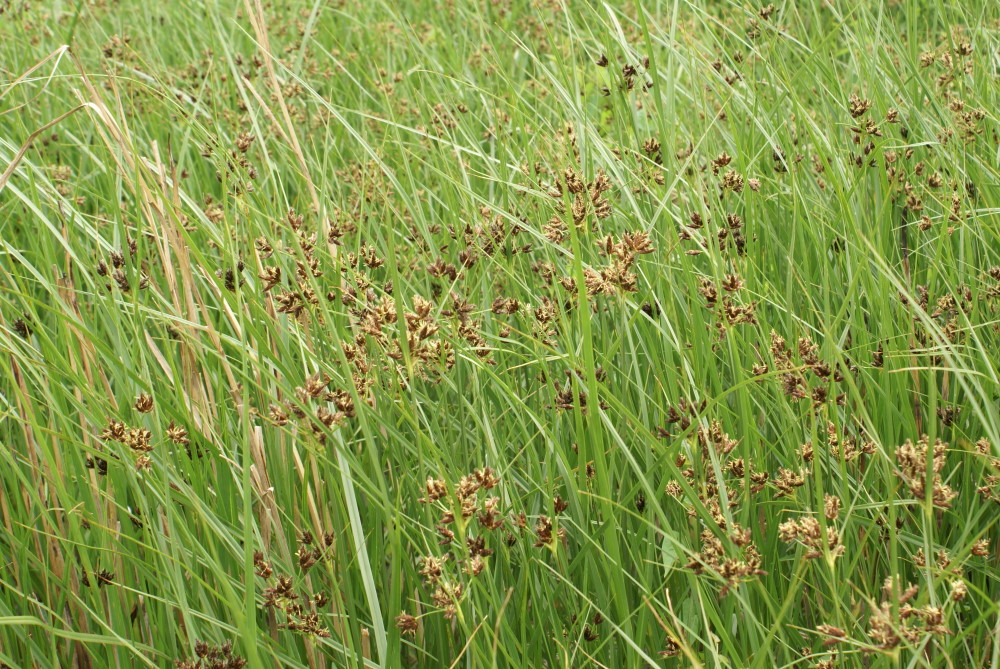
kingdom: Plantae
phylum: Tracheophyta
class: Liliopsida
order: Poales
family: Cyperaceae
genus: Bolboschoenus
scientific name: Bolboschoenus maritimus
